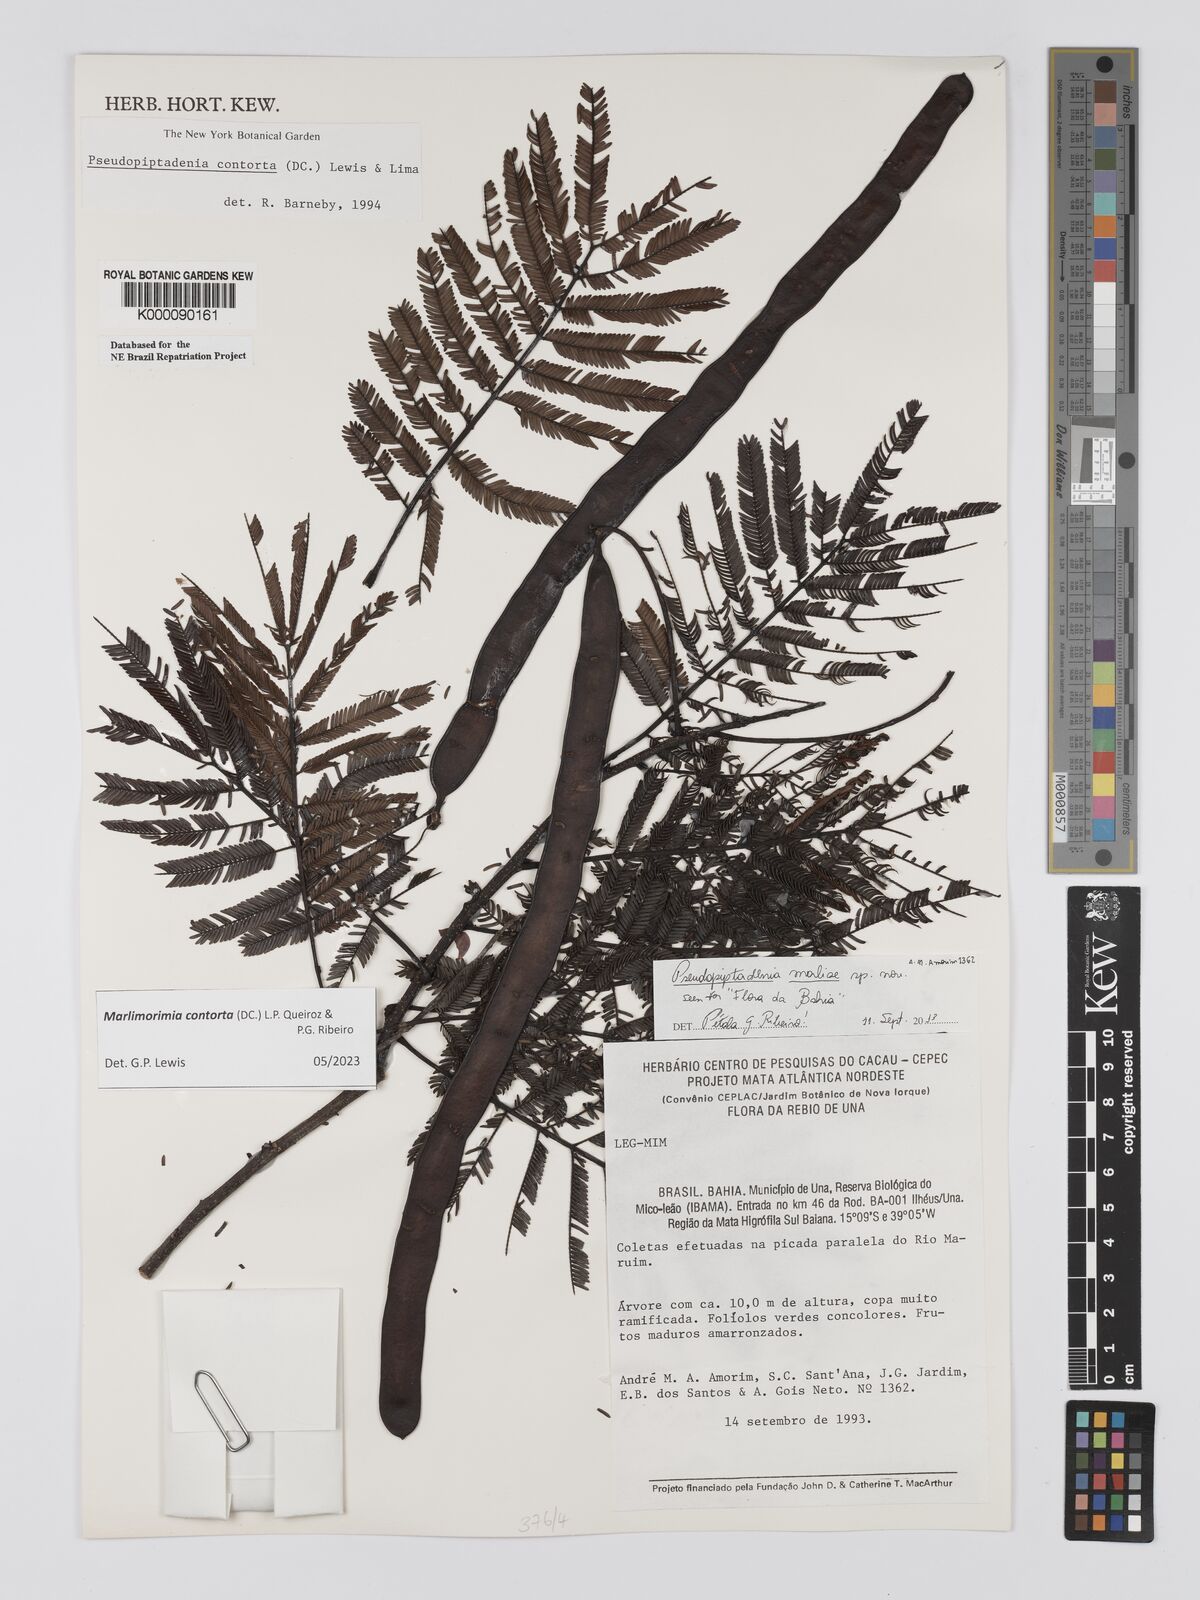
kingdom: Plantae
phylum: Tracheophyta
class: Magnoliopsida
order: Fabales
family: Fabaceae
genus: Pseudopiptadenia
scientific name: Pseudopiptadenia contorta
